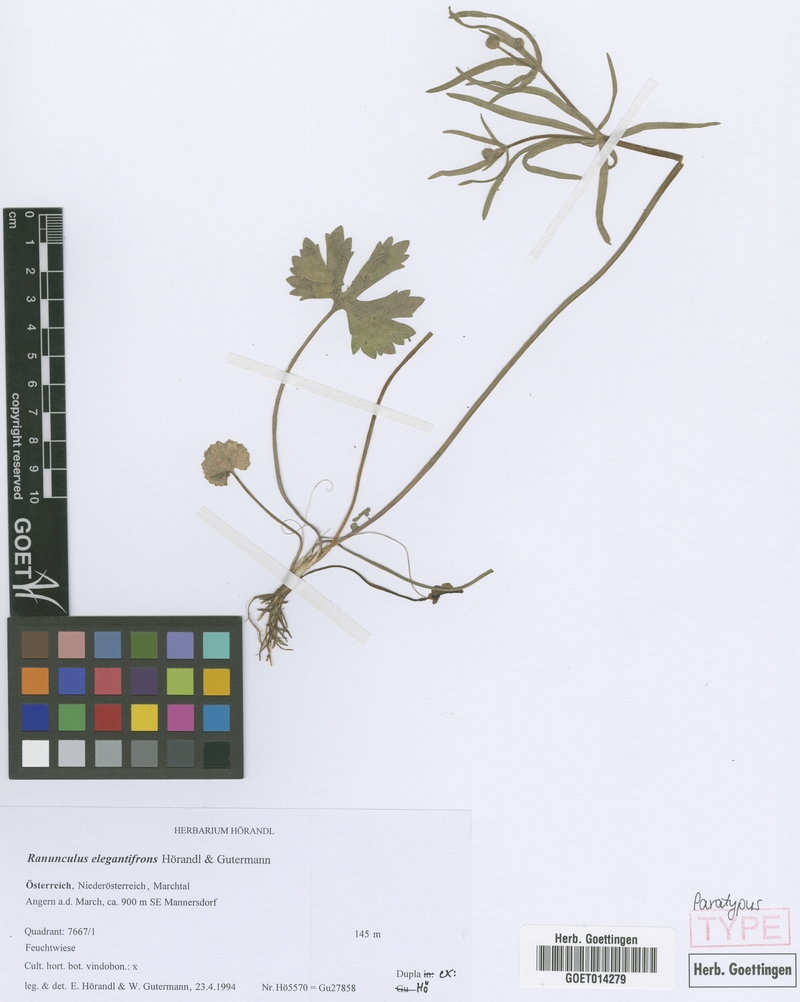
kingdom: Plantae
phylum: Tracheophyta
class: Magnoliopsida
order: Ranunculales
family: Ranunculaceae
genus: Ranunculus
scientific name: Ranunculus elegantifrons
